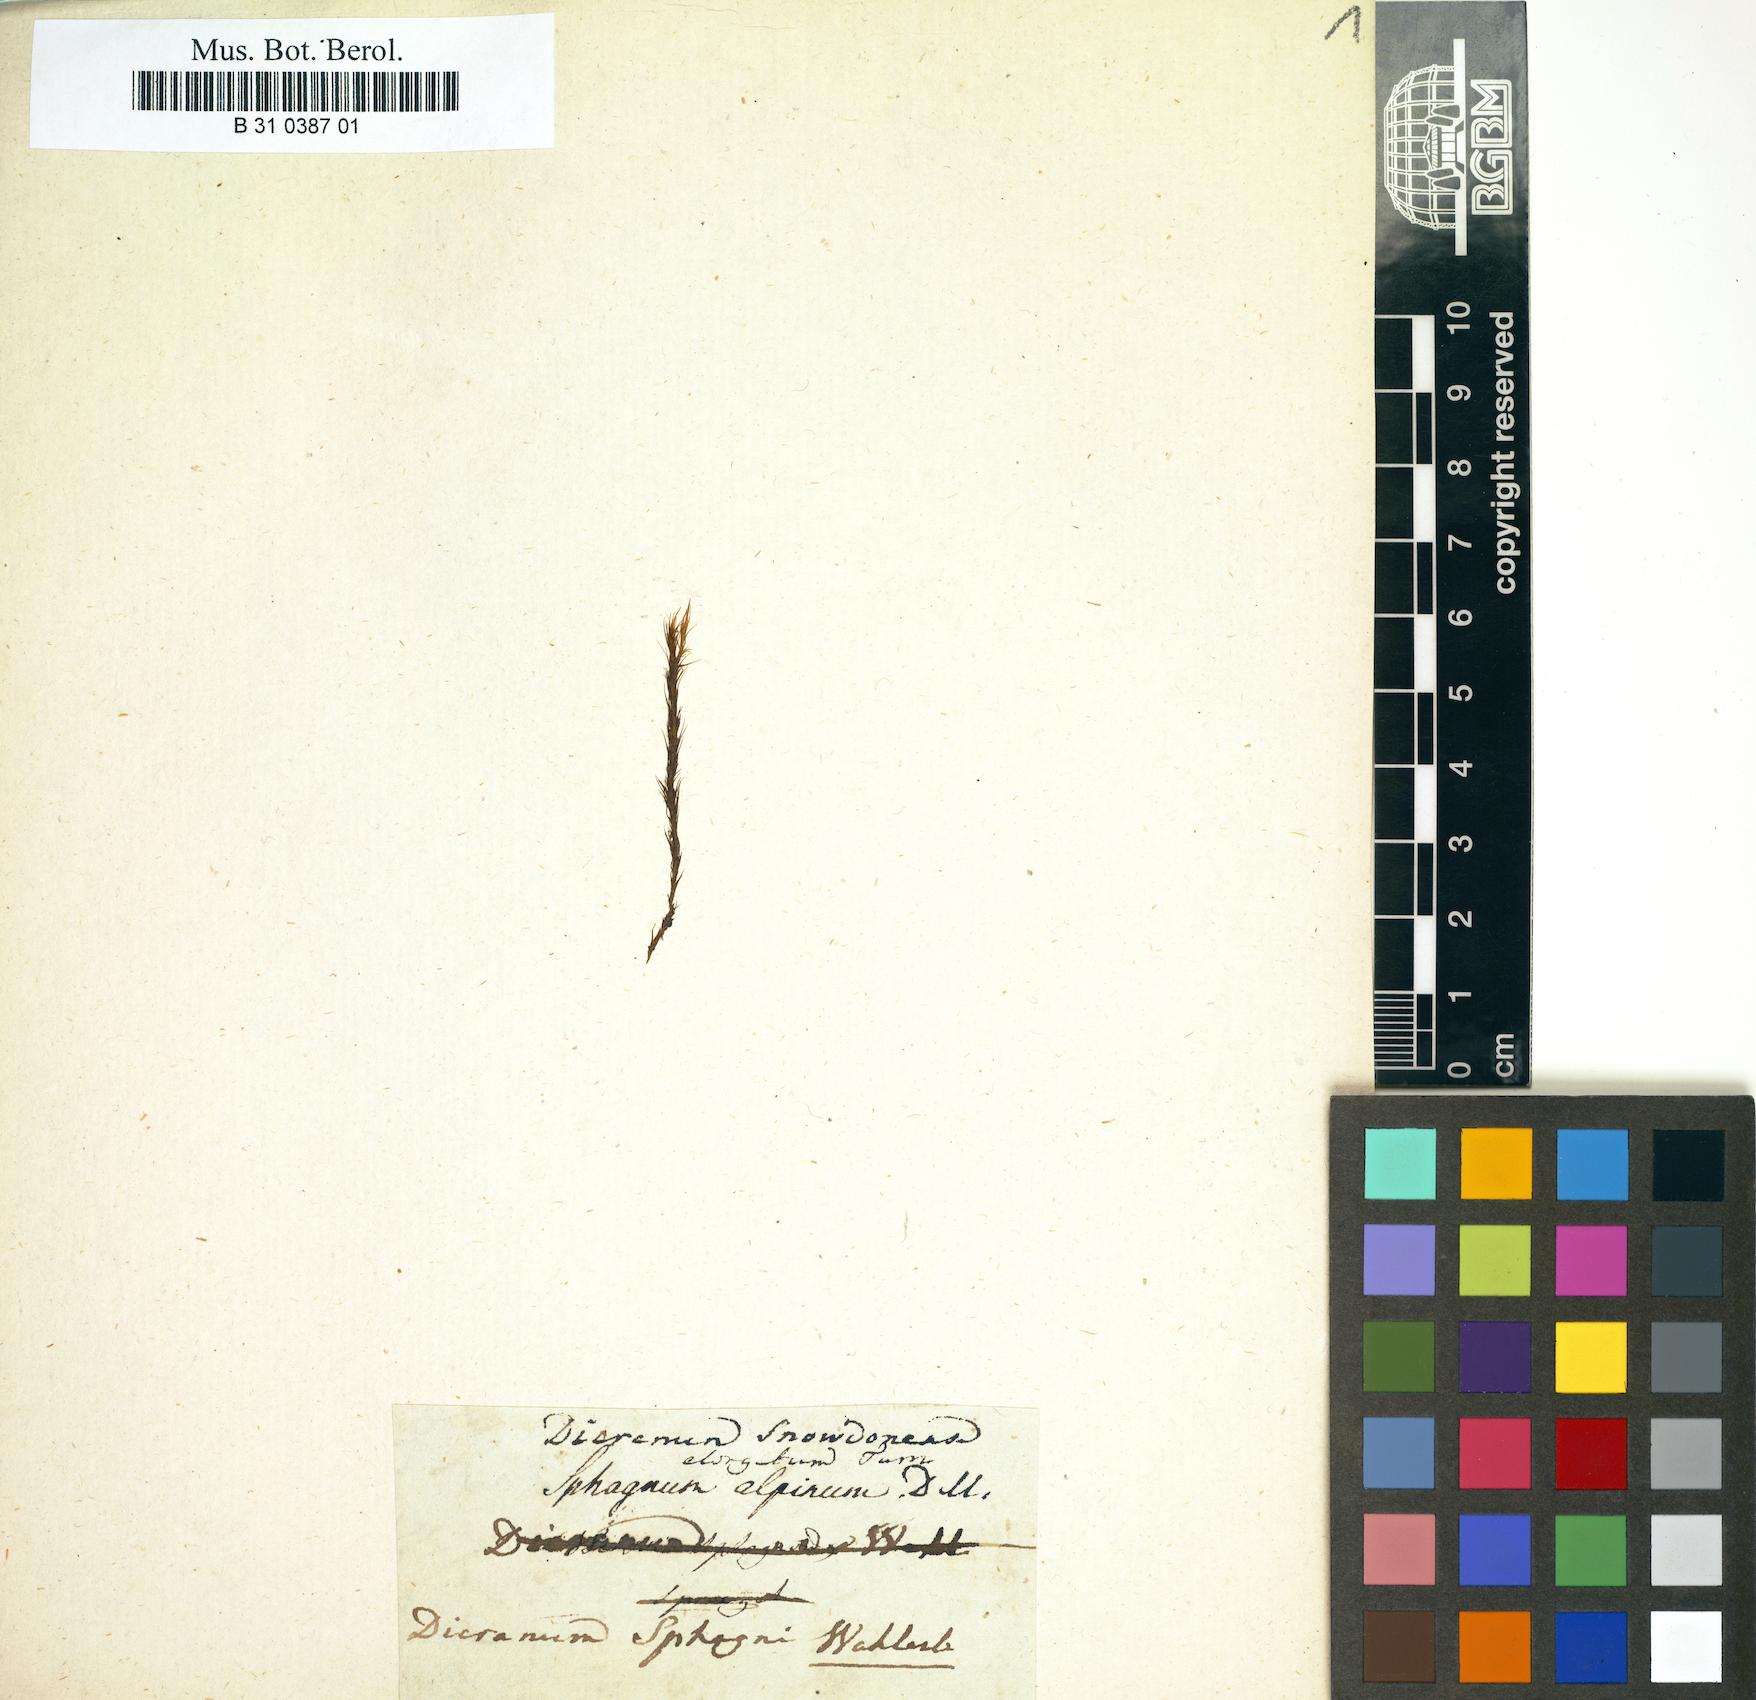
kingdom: Plantae
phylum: Bryophyta
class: Bryopsida
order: Dicranales
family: Dicranaceae
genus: Dicranum
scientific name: Dicranum elongatum
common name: Long-forked broom moss
